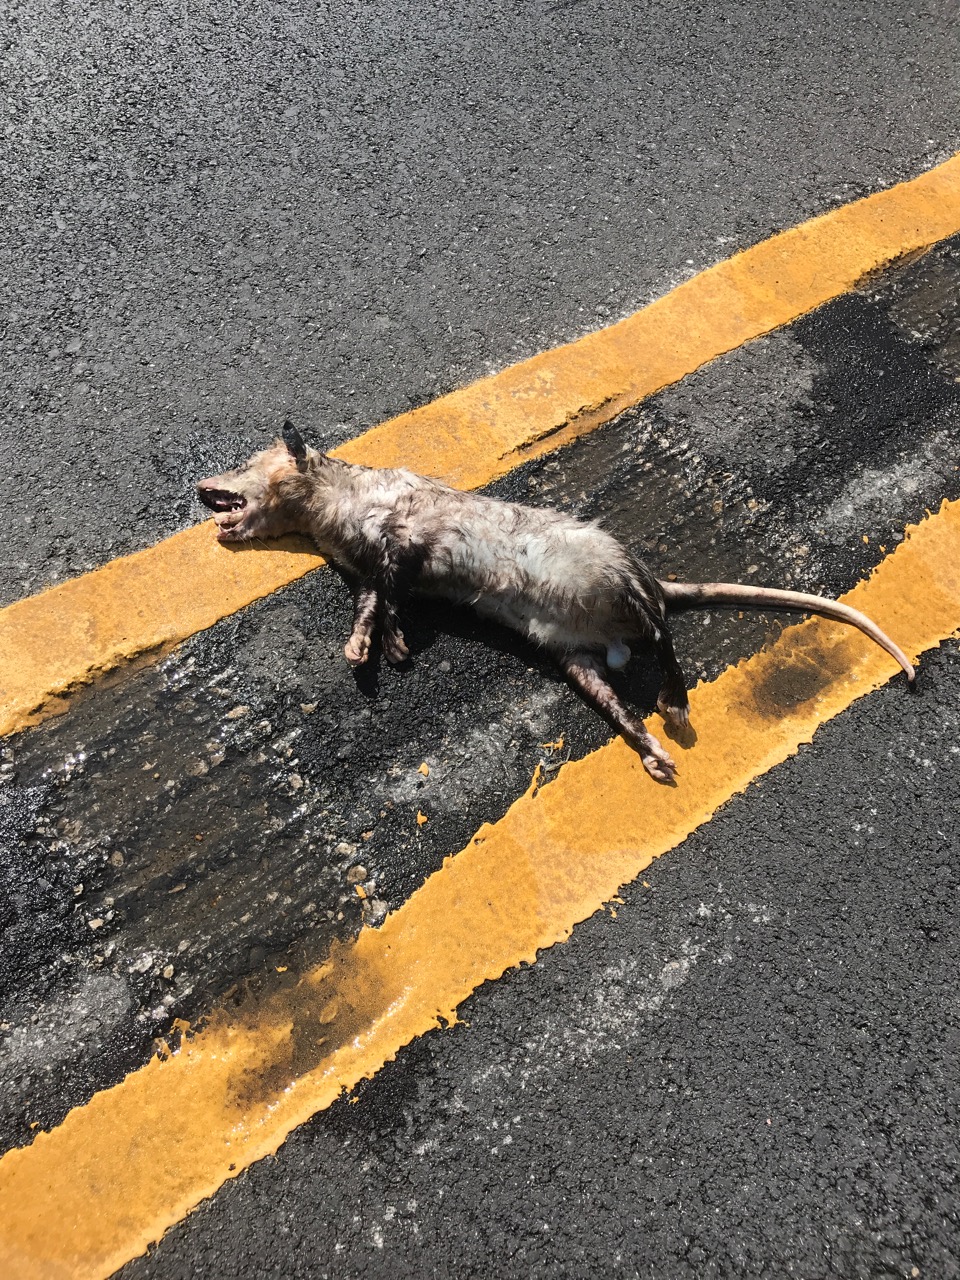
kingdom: Animalia
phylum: Chordata
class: Mammalia
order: Didelphimorphia
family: Didelphidae
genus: Didelphis
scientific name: Didelphis virginiana
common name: Virginia opossum
